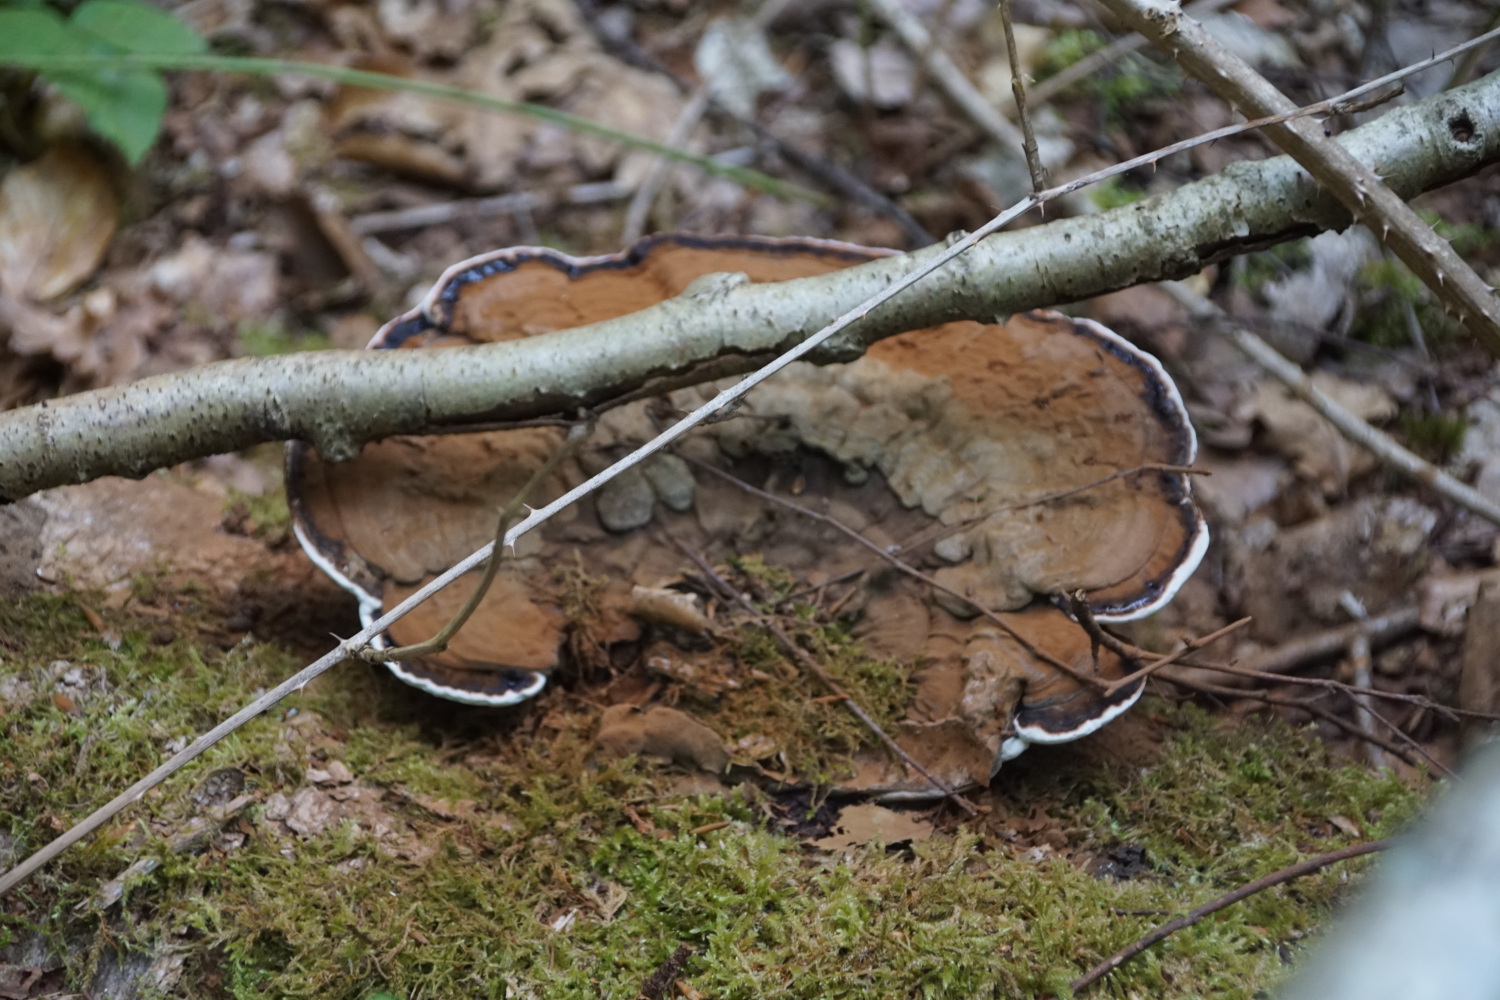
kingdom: Fungi
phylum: Basidiomycota
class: Agaricomycetes
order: Polyporales
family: Polyporaceae
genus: Ganoderma
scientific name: Ganoderma applanatum
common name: flad lakporesvamp
